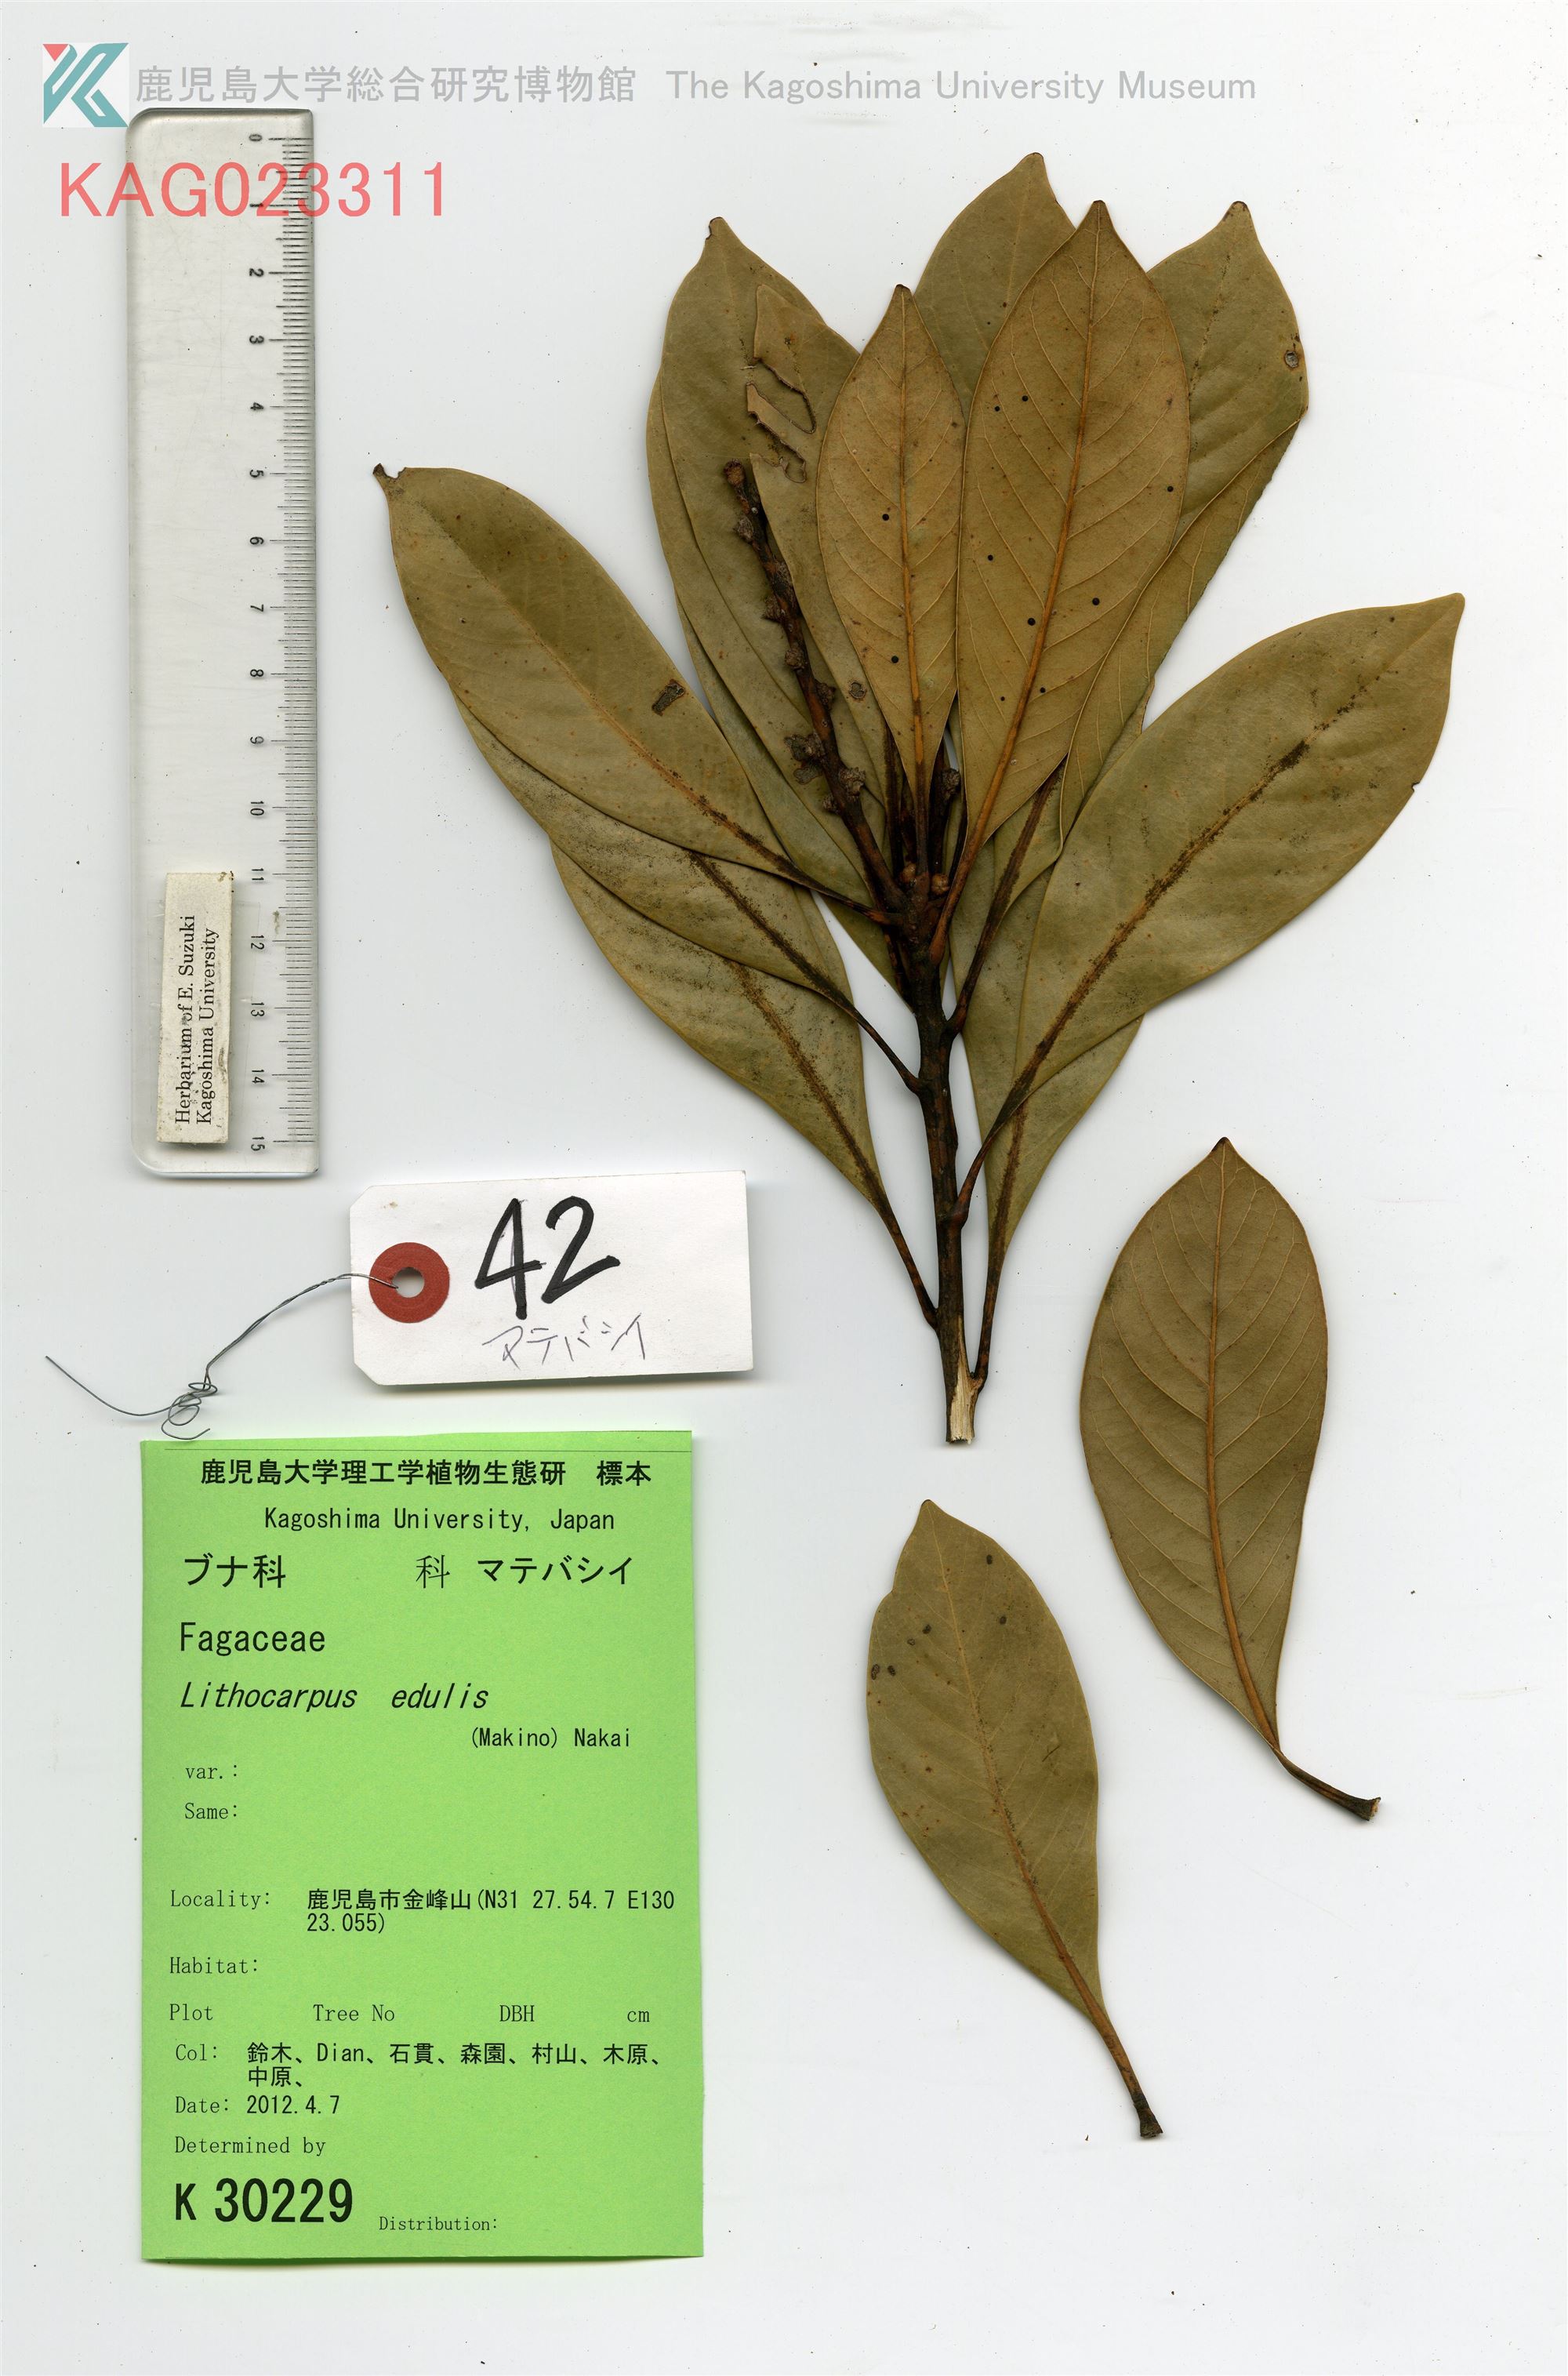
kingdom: Plantae
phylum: Tracheophyta
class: Magnoliopsida
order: Fagales
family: Fagaceae
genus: Lithocarpus
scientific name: Lithocarpus edulis
